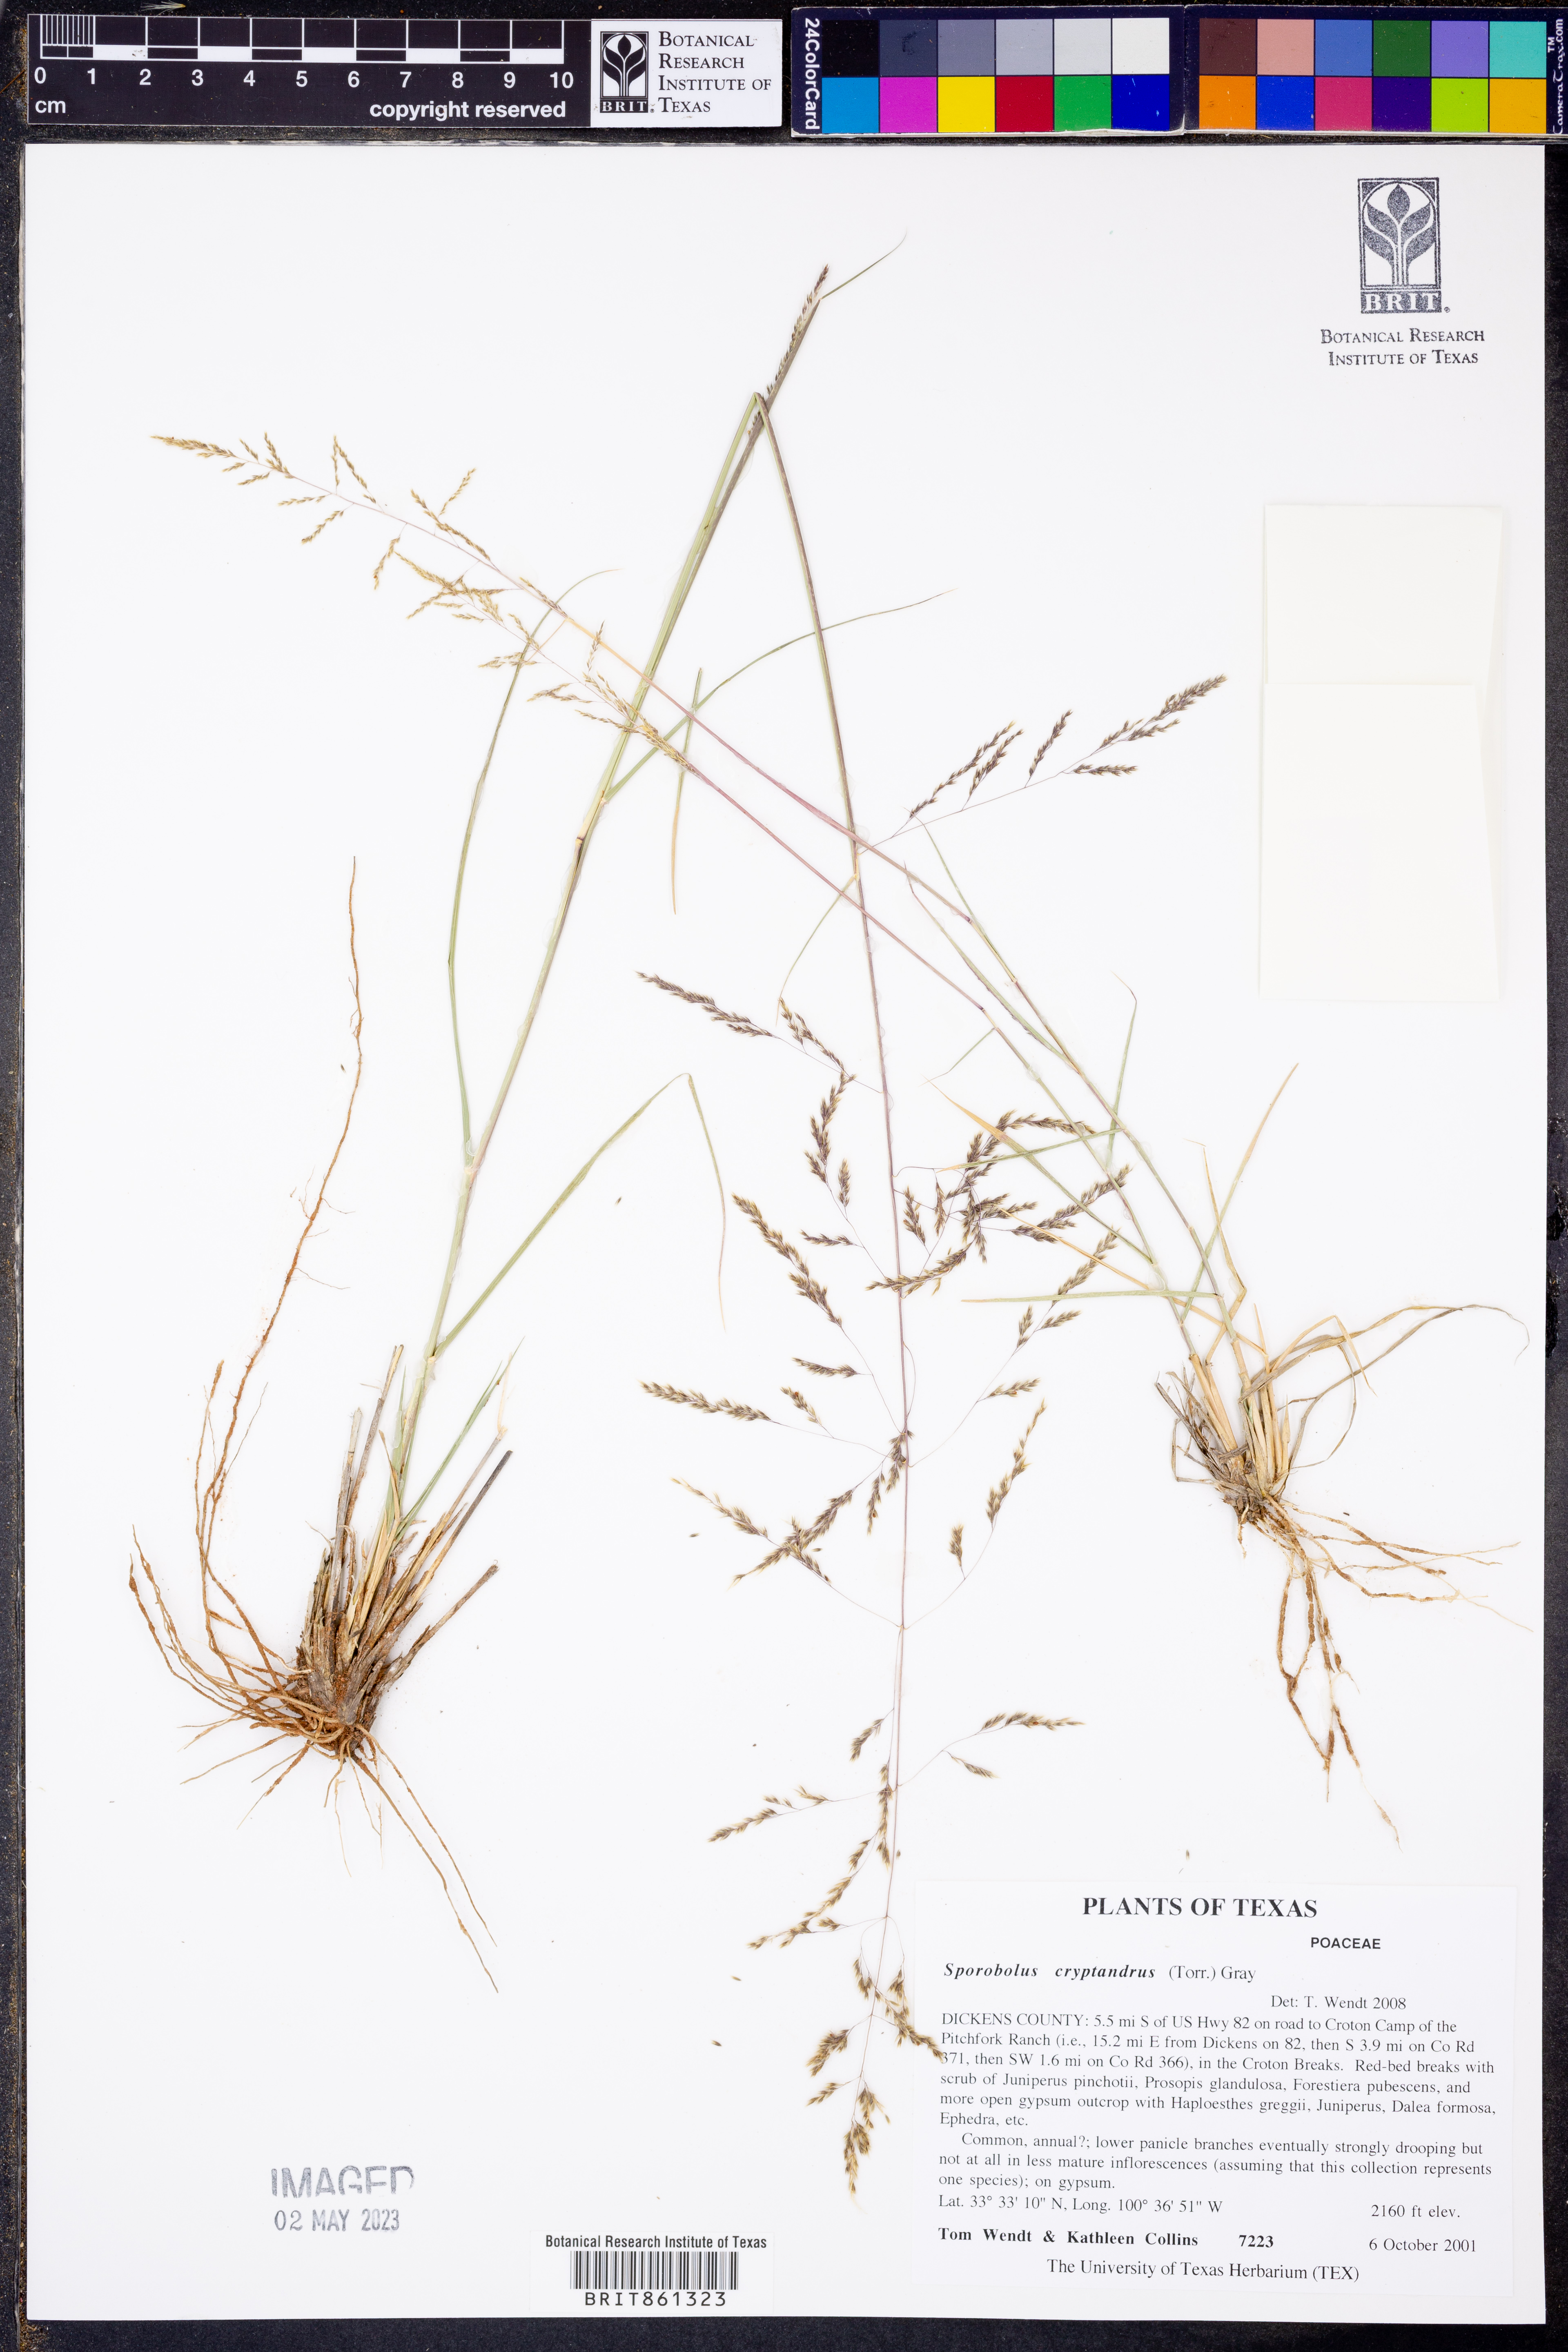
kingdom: Plantae
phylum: Tracheophyta
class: Liliopsida
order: Poales
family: Poaceae
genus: Sporobolus
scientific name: Sporobolus cryptandrus
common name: Sand dropseed
